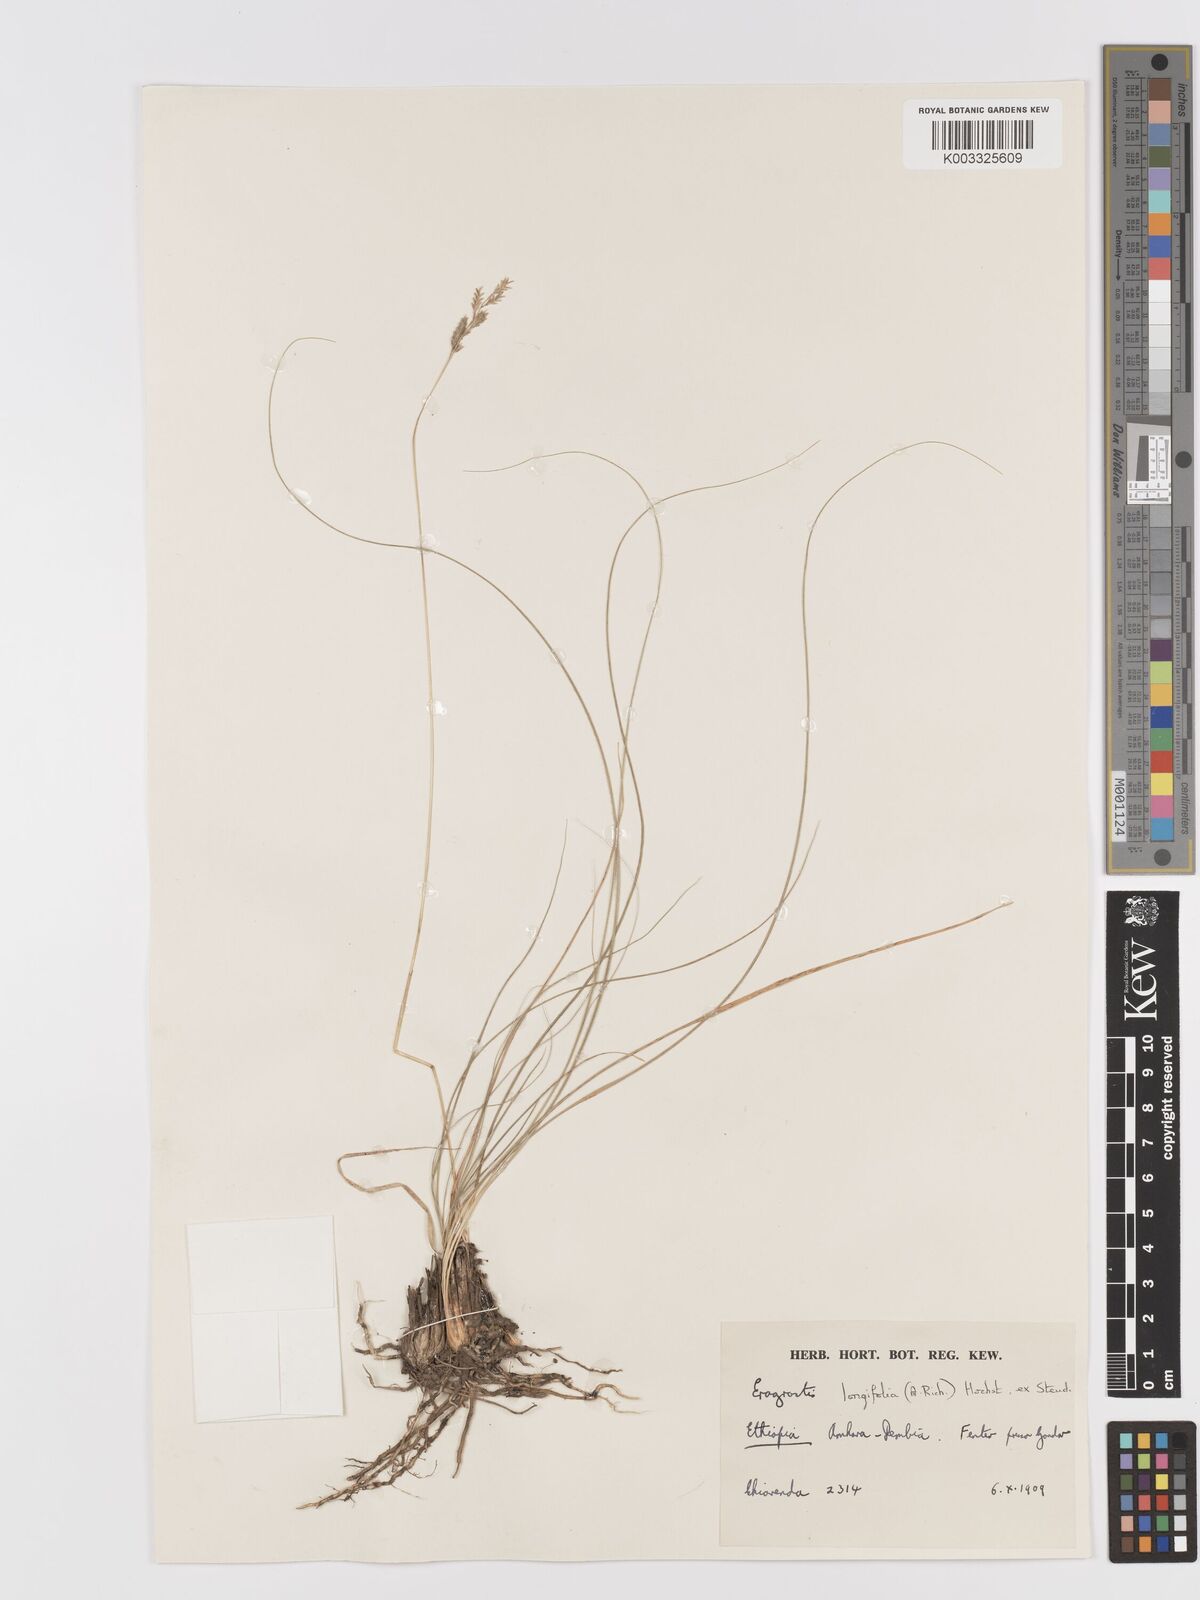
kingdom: Plantae
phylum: Tracheophyta
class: Liliopsida
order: Poales
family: Poaceae
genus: Eragrostis
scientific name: Eragrostis longifolia
